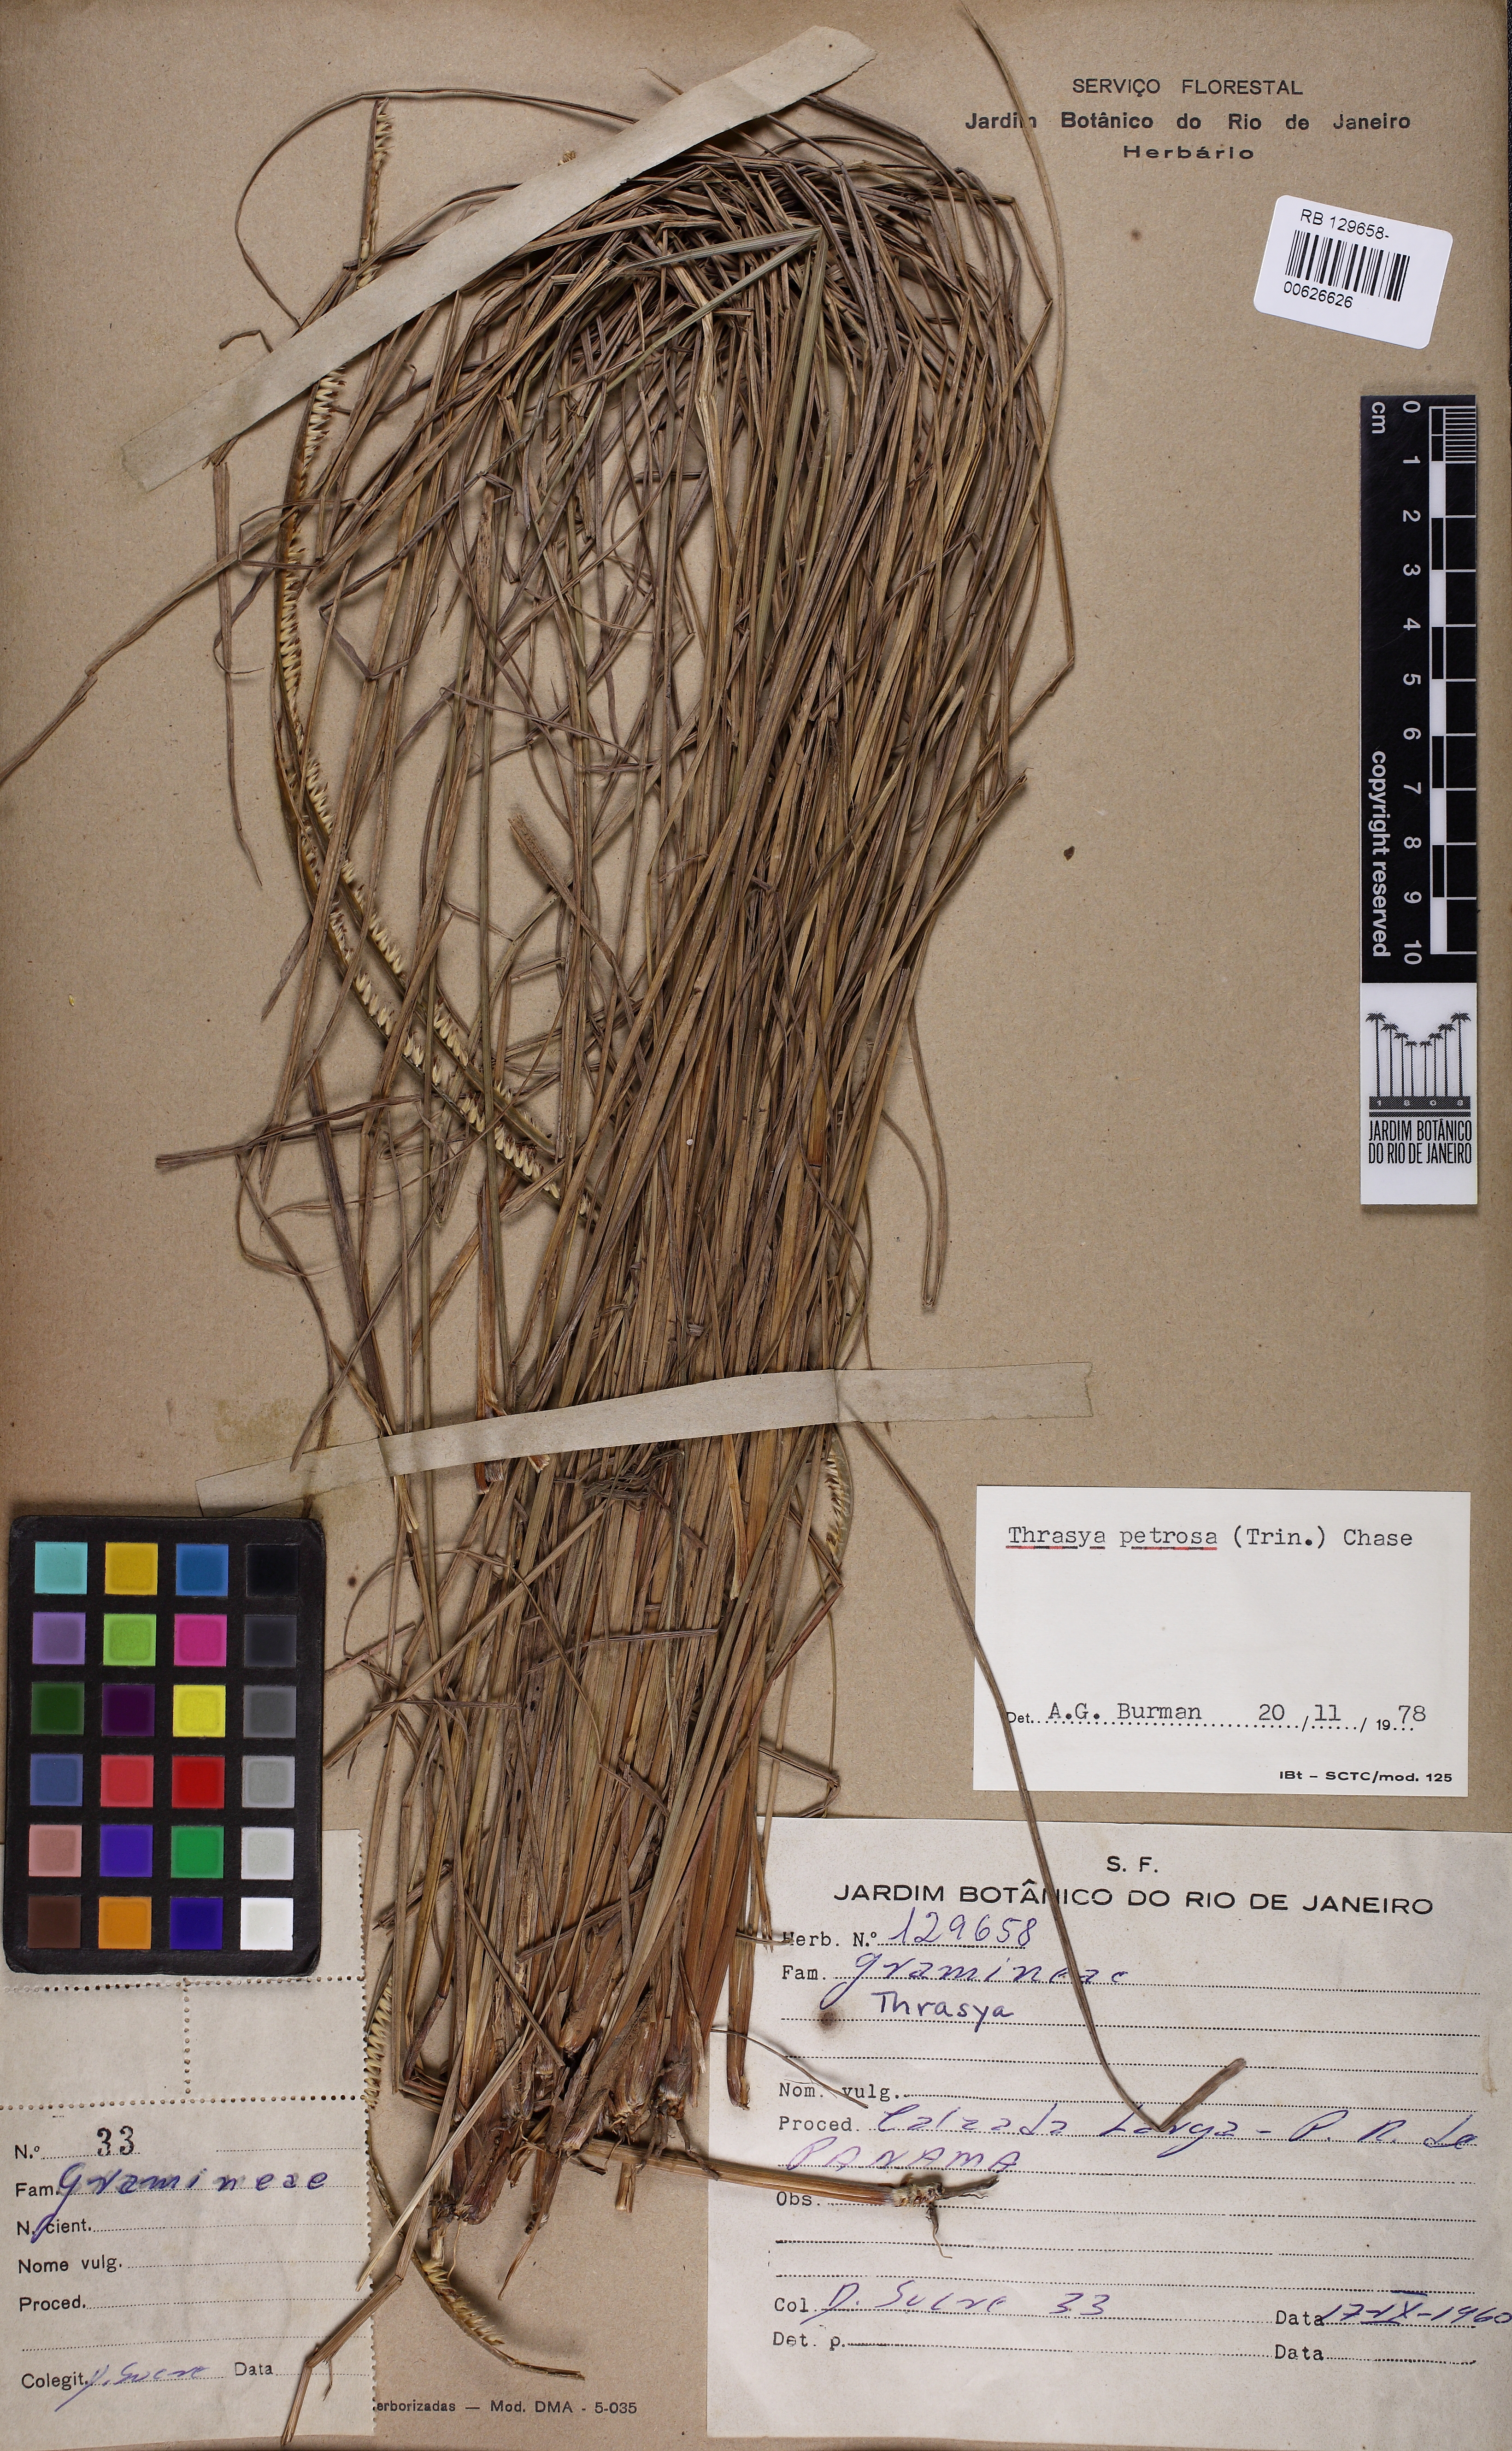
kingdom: Plantae
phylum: Tracheophyta
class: Liliopsida
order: Poales
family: Poaceae
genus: Paspalum
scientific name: Paspalum
